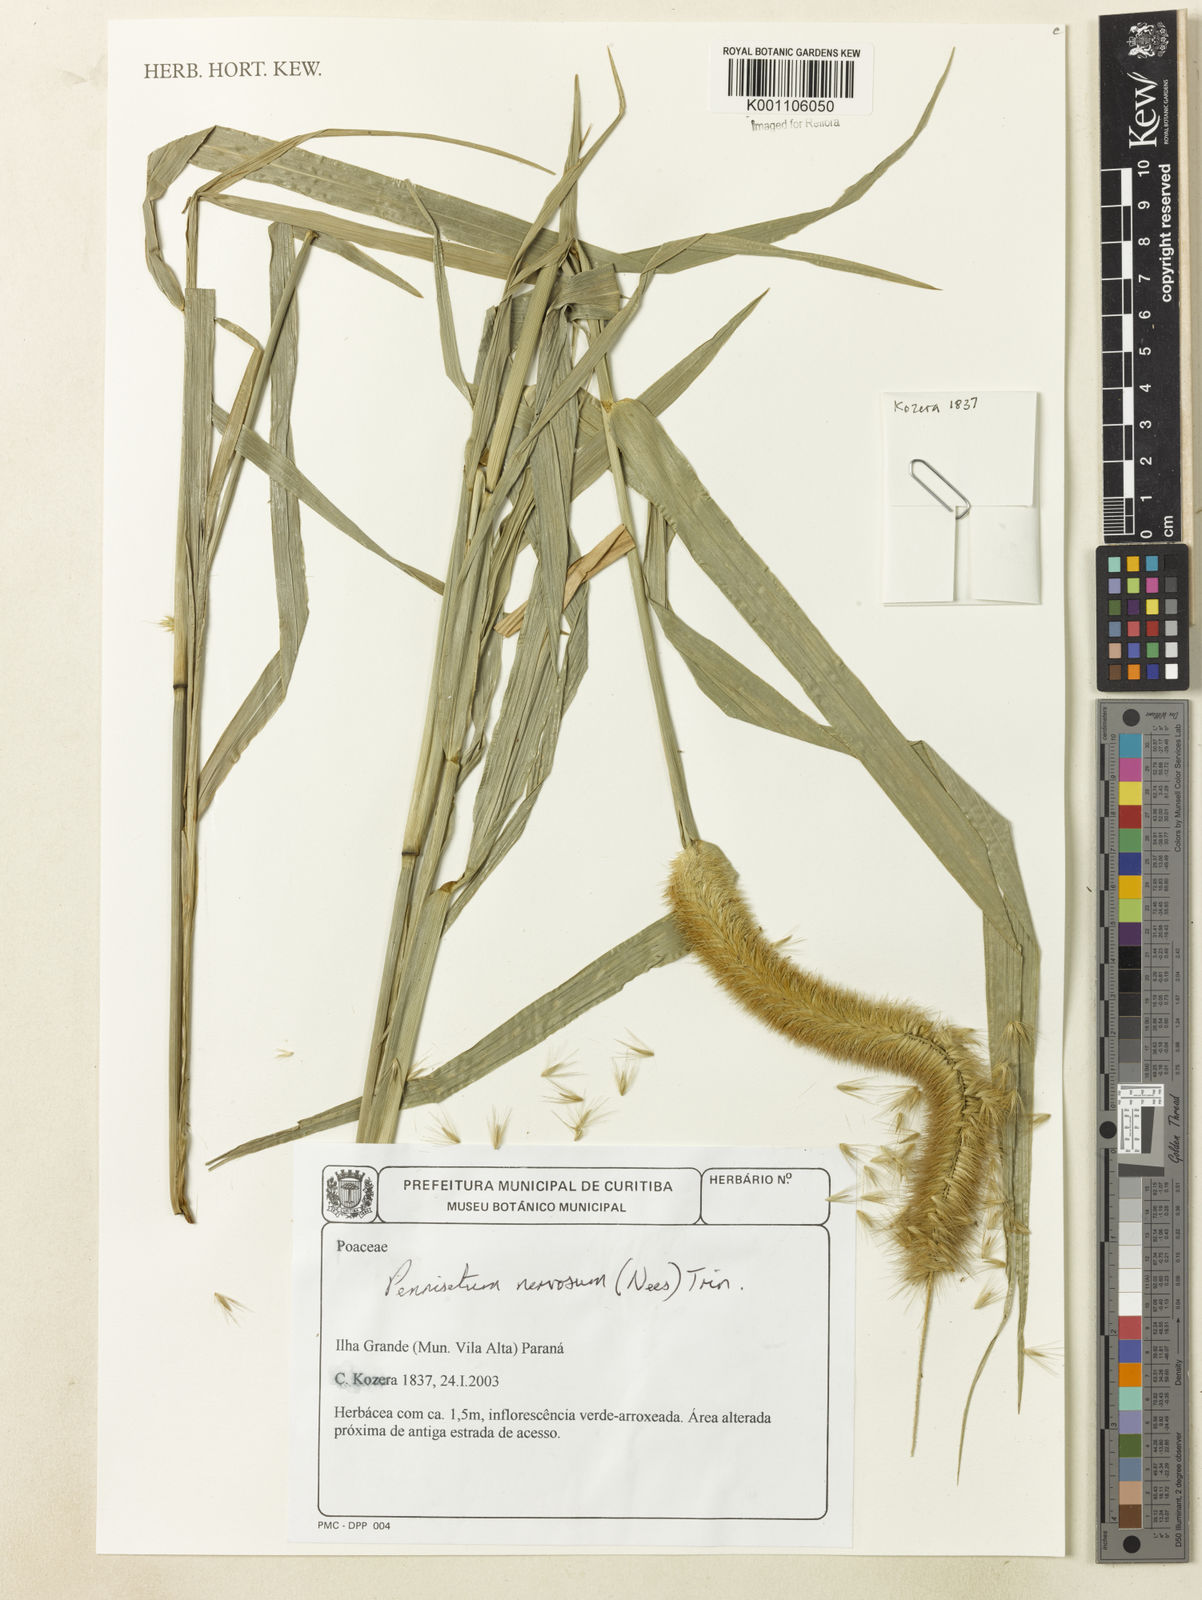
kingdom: Plantae
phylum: Tracheophyta
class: Liliopsida
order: Poales
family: Poaceae
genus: Cenchrus
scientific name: Cenchrus nervosus
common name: Bentspike fountaingrass
